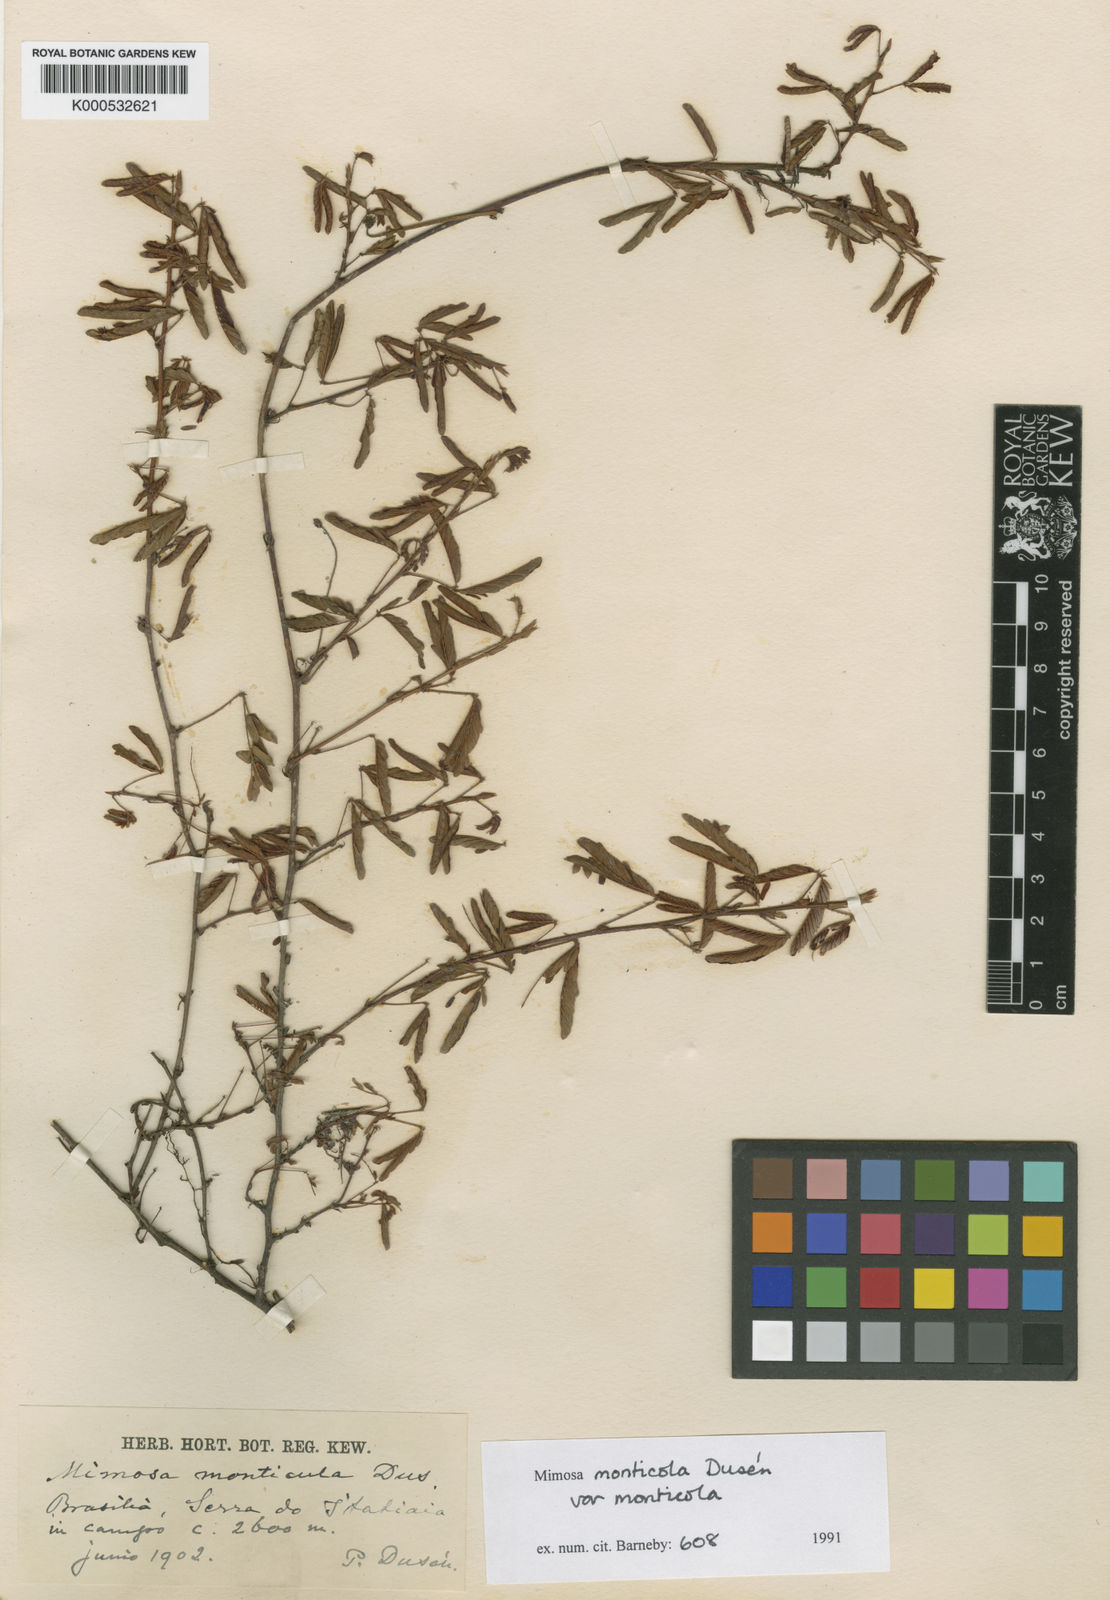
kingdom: Plantae
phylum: Tracheophyta
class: Magnoliopsida
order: Fabales
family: Fabaceae
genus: Mimosa
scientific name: Mimosa
